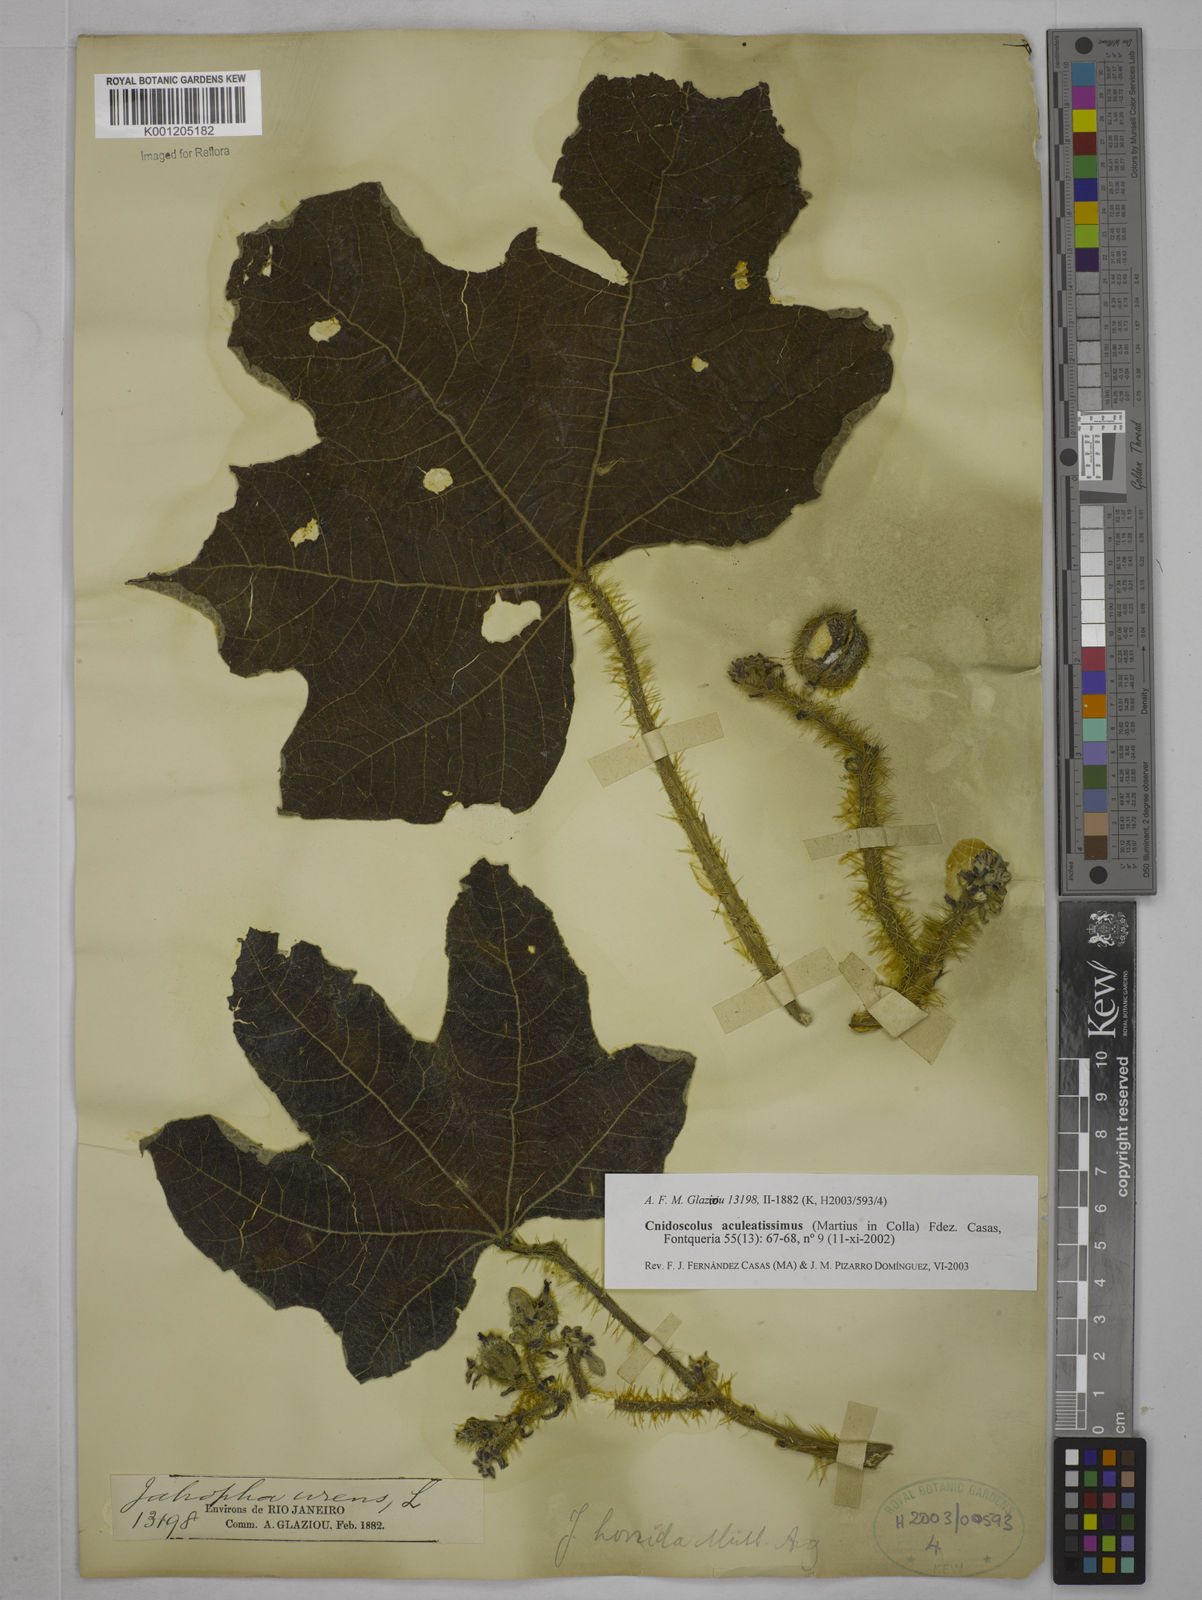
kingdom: Plantae
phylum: Tracheophyta
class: Magnoliopsida
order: Malpighiales
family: Euphorbiaceae
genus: Cnidoscolus
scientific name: Cnidoscolus aculeatissimus
